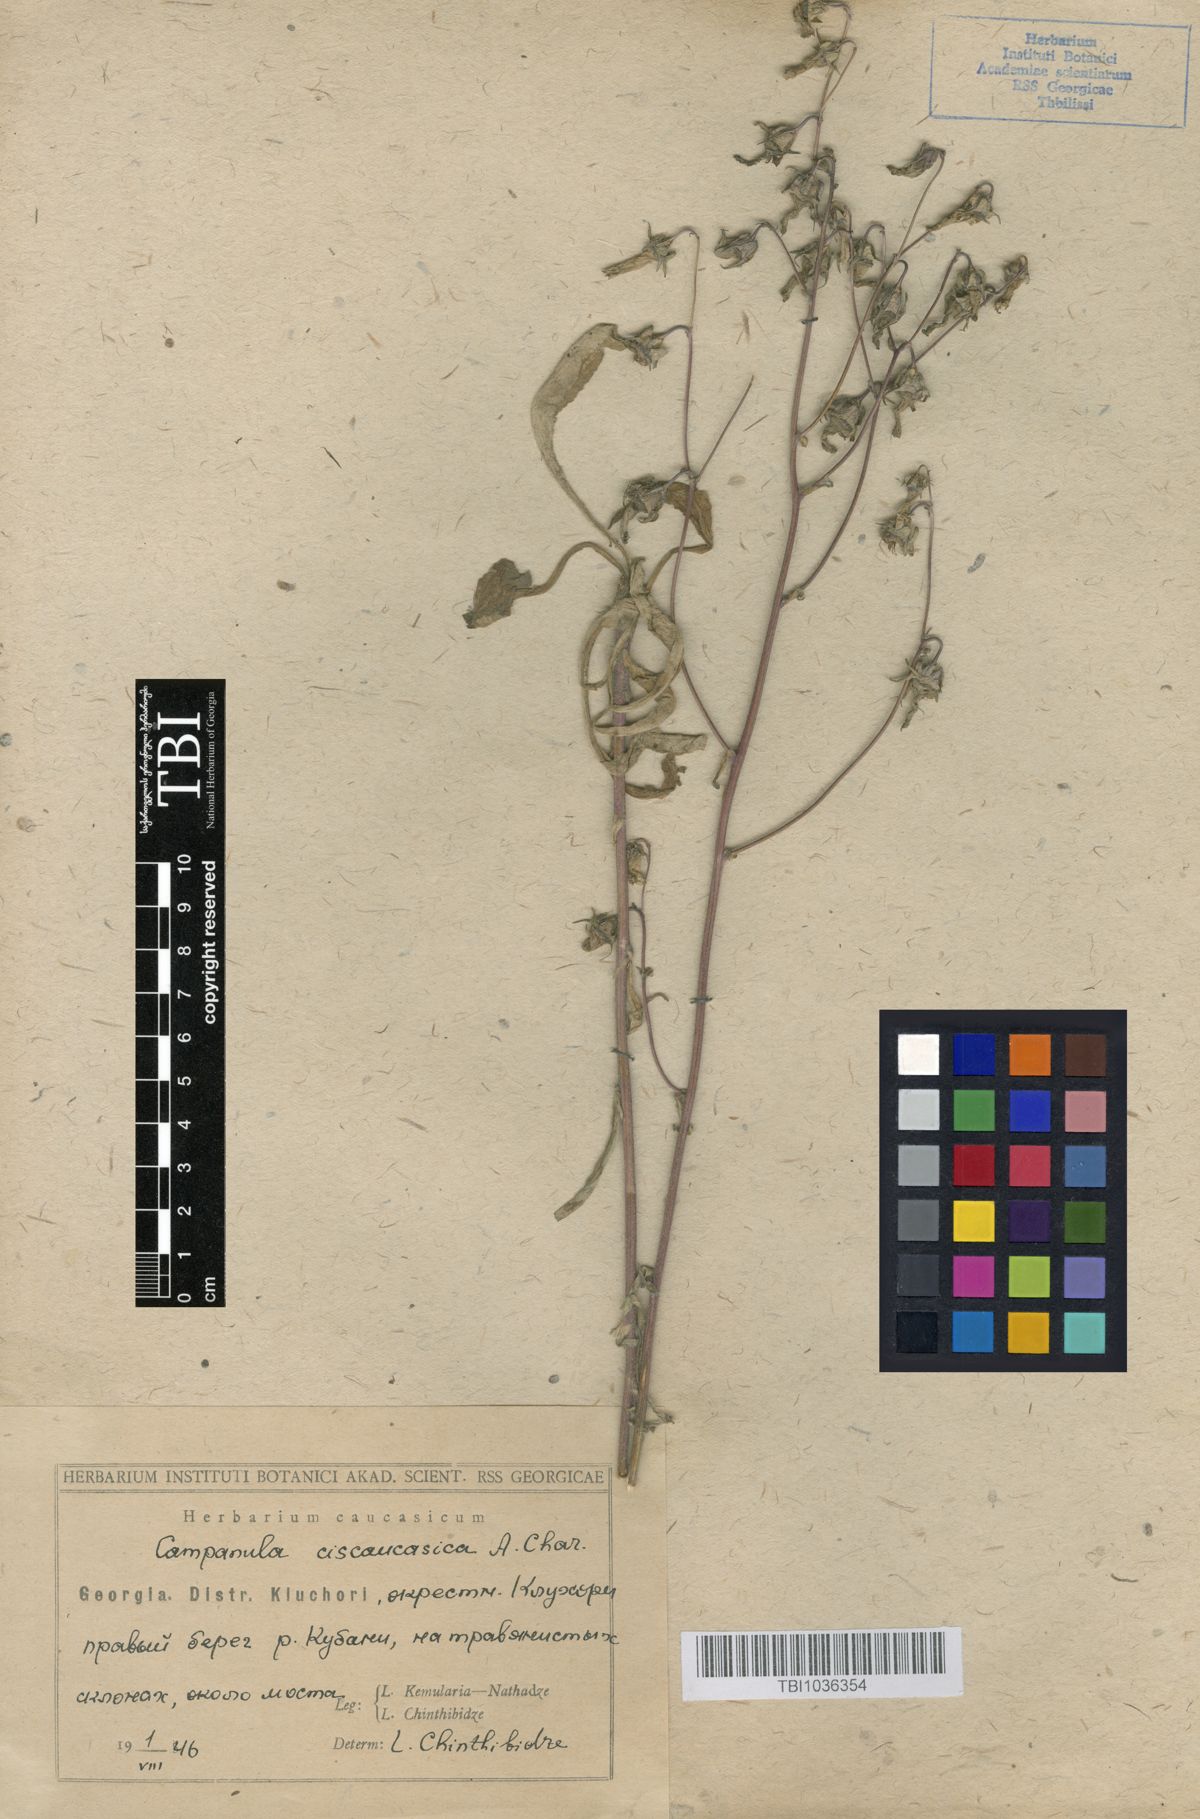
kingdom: Plantae
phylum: Tracheophyta
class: Magnoliopsida
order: Asterales
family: Campanulaceae
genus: Campanula
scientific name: Campanula sibirica
